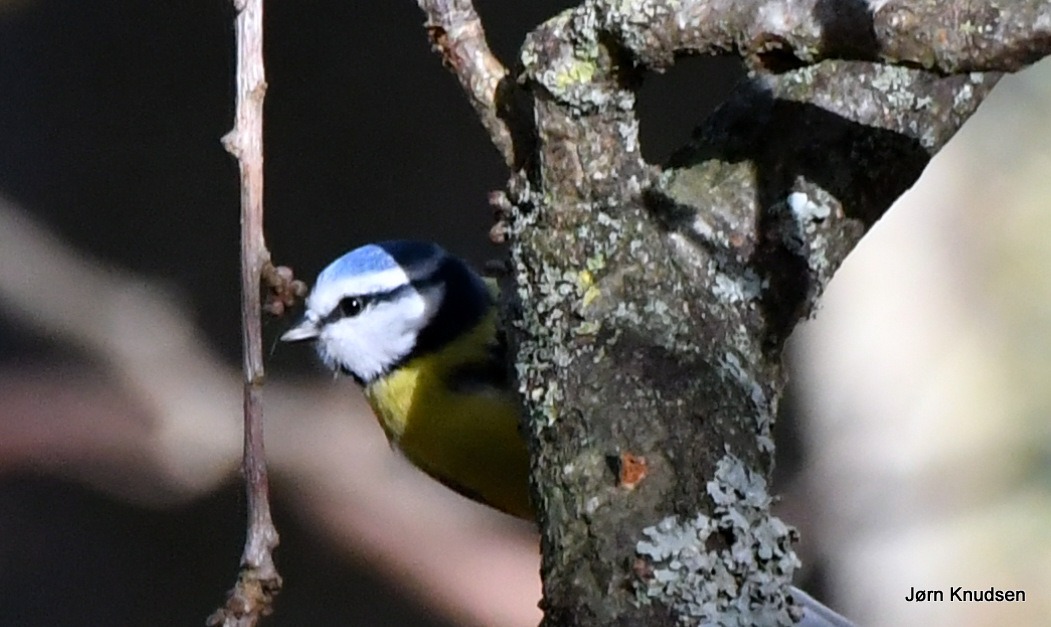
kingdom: Animalia
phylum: Chordata
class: Aves
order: Passeriformes
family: Paridae
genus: Cyanistes
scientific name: Cyanistes caeruleus
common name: Blåmejse
